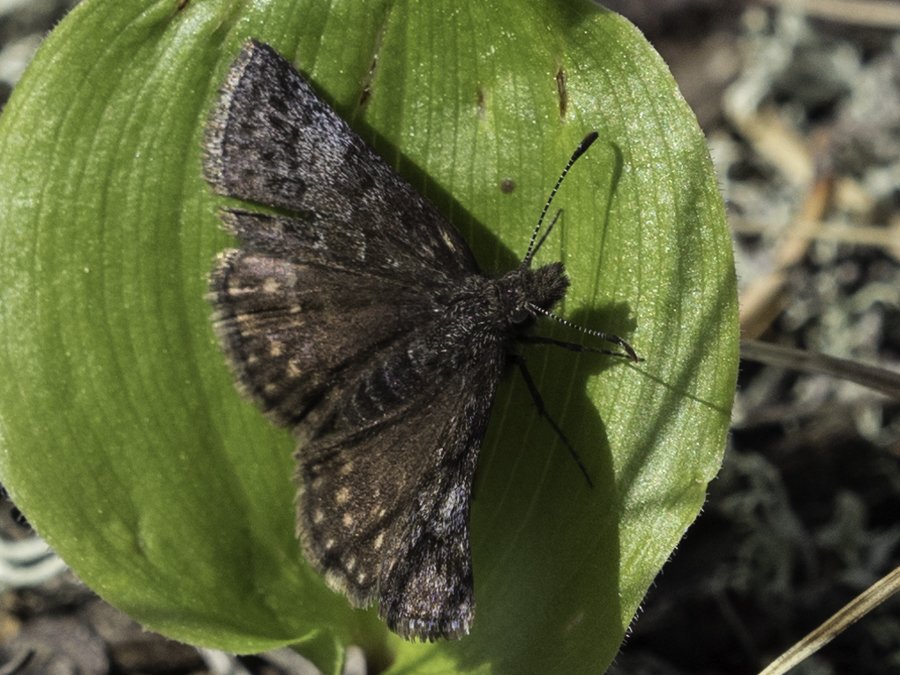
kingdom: Animalia
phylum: Arthropoda
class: Insecta
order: Lepidoptera
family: Hesperiidae
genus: Erynnis
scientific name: Erynnis icelus
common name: Dreamy Duskywing
